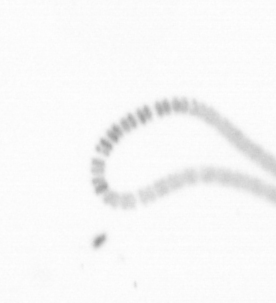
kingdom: Chromista
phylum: Ochrophyta
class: Bacillariophyceae
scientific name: Bacillariophyceae
